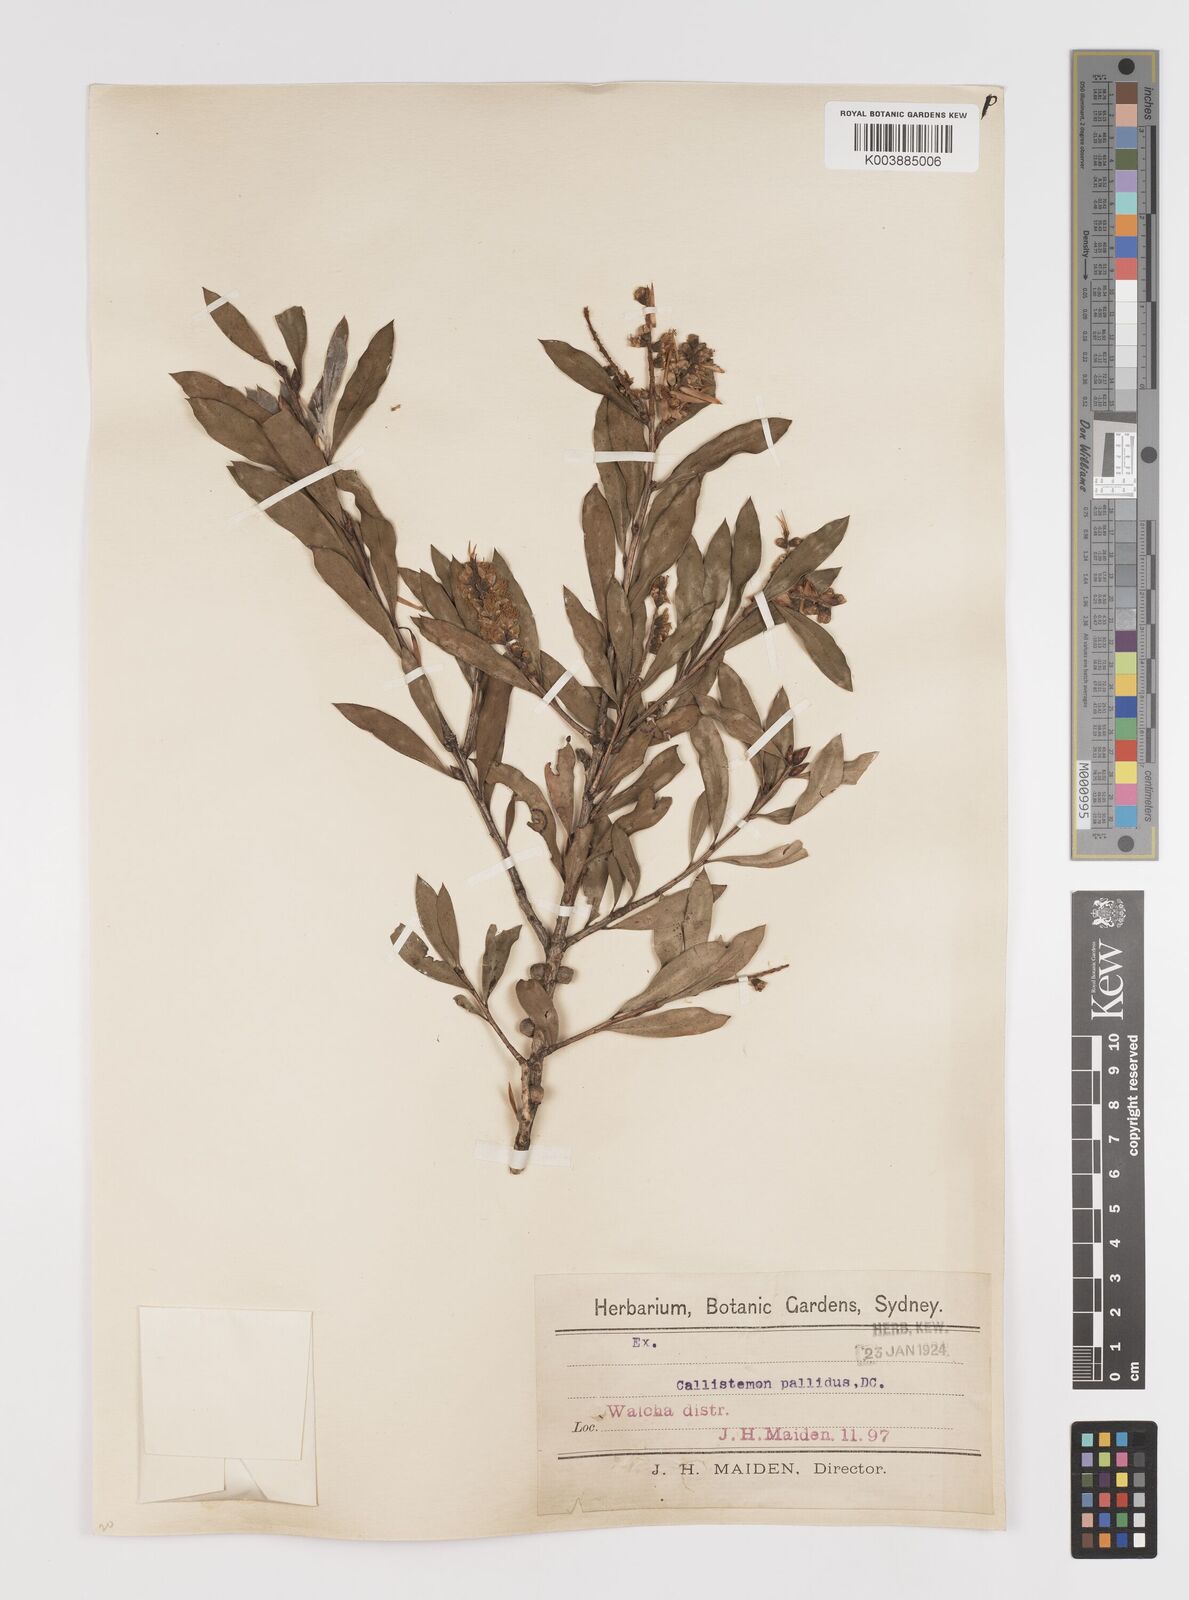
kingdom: Plantae
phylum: Tracheophyta
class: Magnoliopsida
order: Myrtales
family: Myrtaceae
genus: Melaleuca
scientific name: Melaleuca pallida
